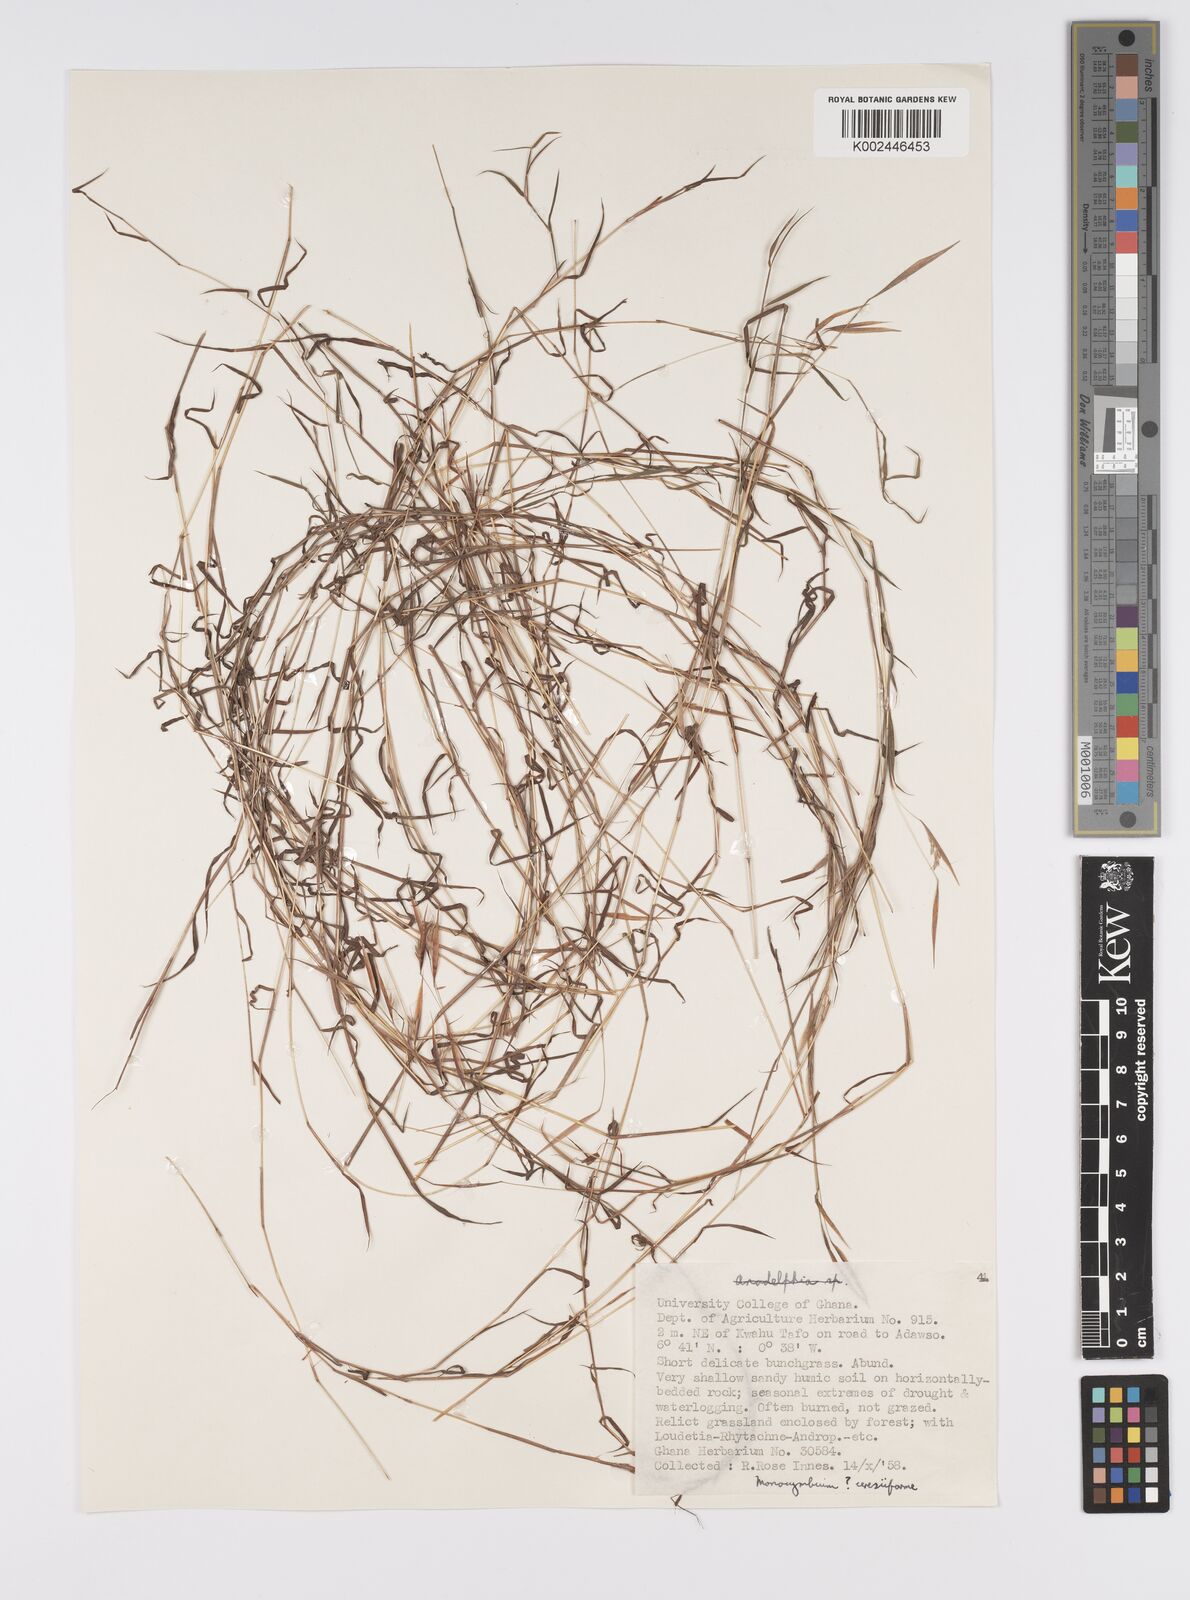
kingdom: Plantae
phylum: Tracheophyta
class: Liliopsida
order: Poales
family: Poaceae
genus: Monocymbium
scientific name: Monocymbium ceresiiforme
